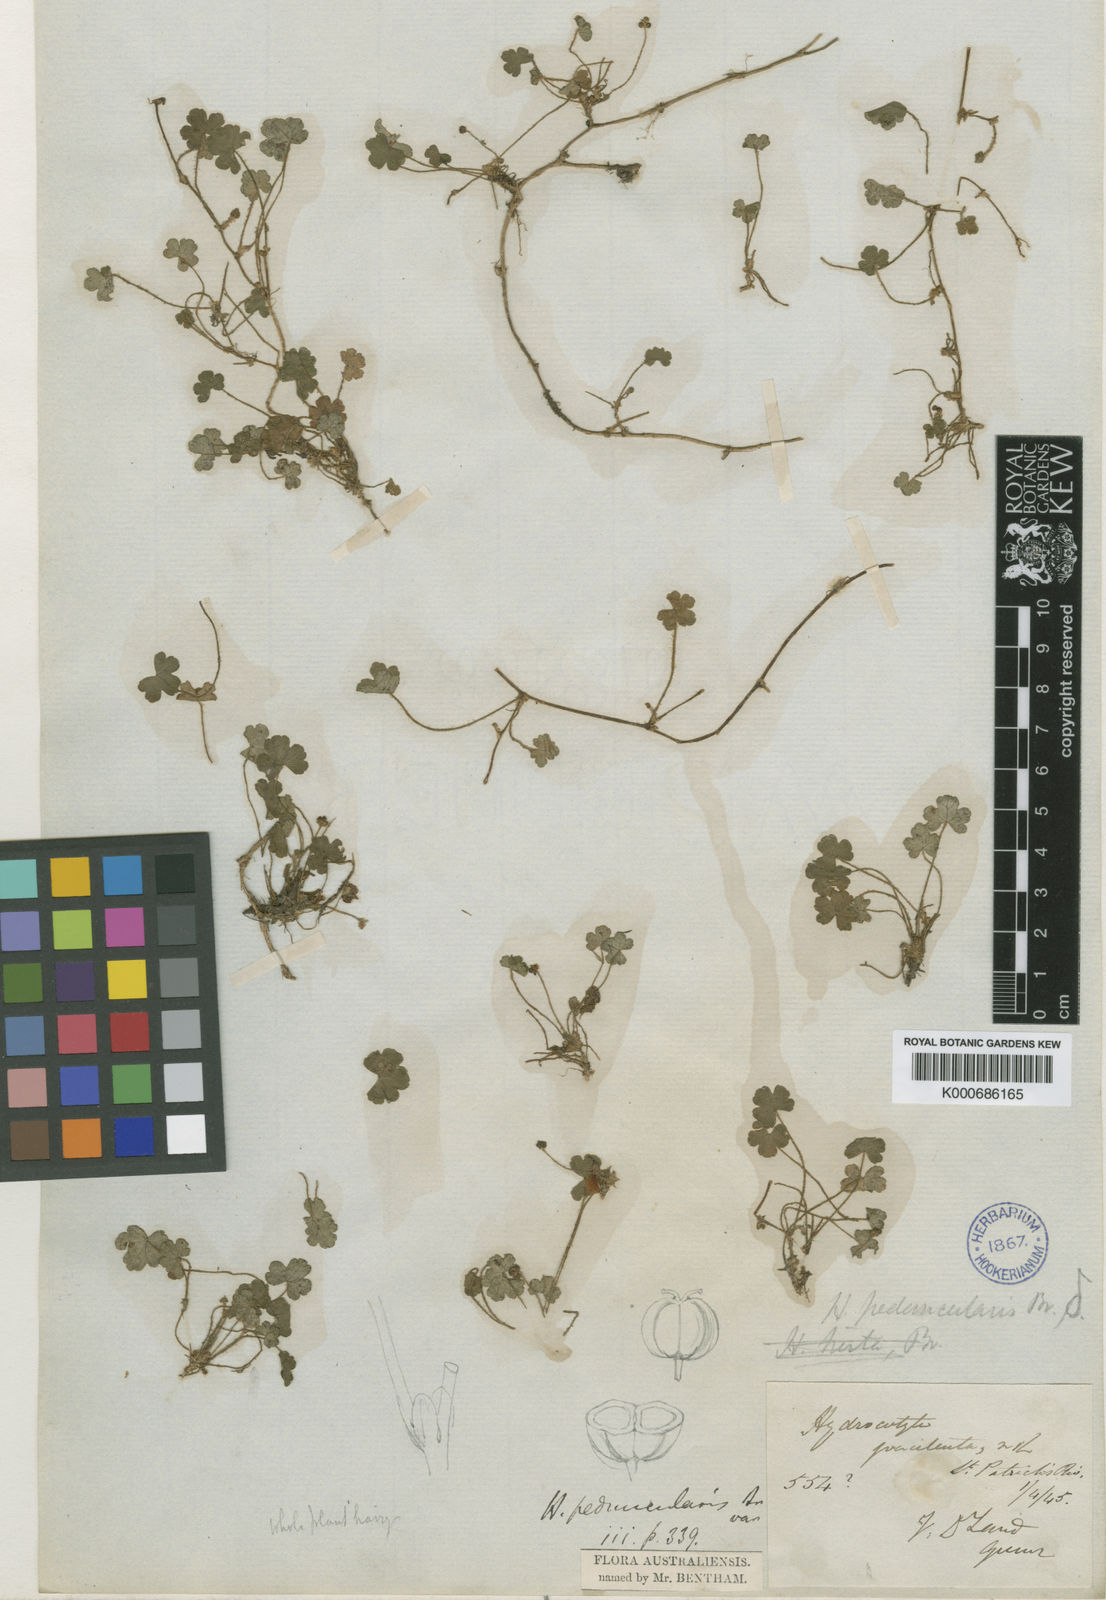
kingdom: Plantae
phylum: Tracheophyta
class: Magnoliopsida
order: Apiales
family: Araliaceae
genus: Hydrocotyle
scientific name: Hydrocotyle peduncularis
